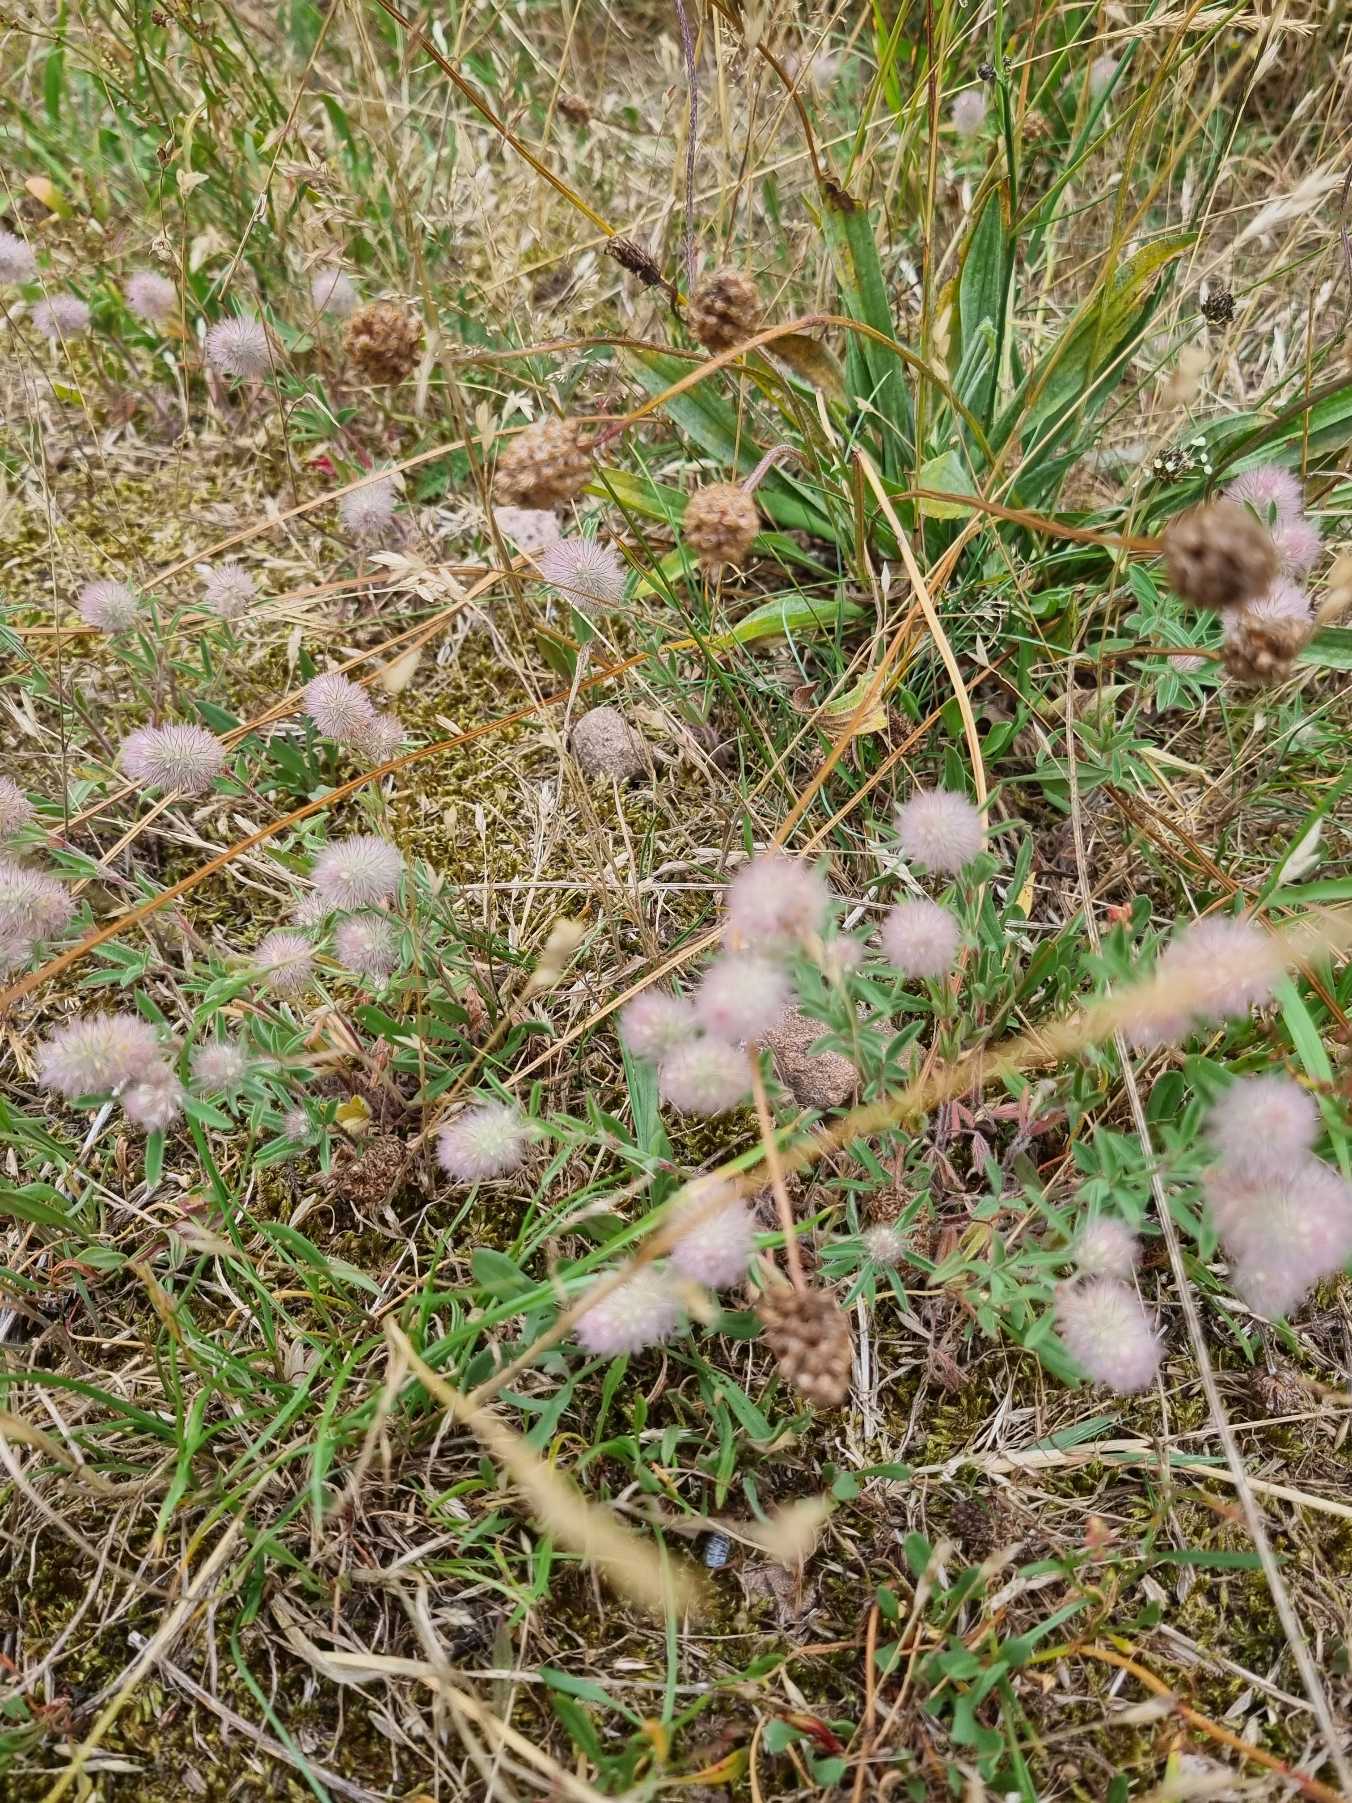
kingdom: Plantae
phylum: Tracheophyta
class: Magnoliopsida
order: Fabales
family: Fabaceae
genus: Trifolium
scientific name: Trifolium arvense
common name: Hare-kløver
